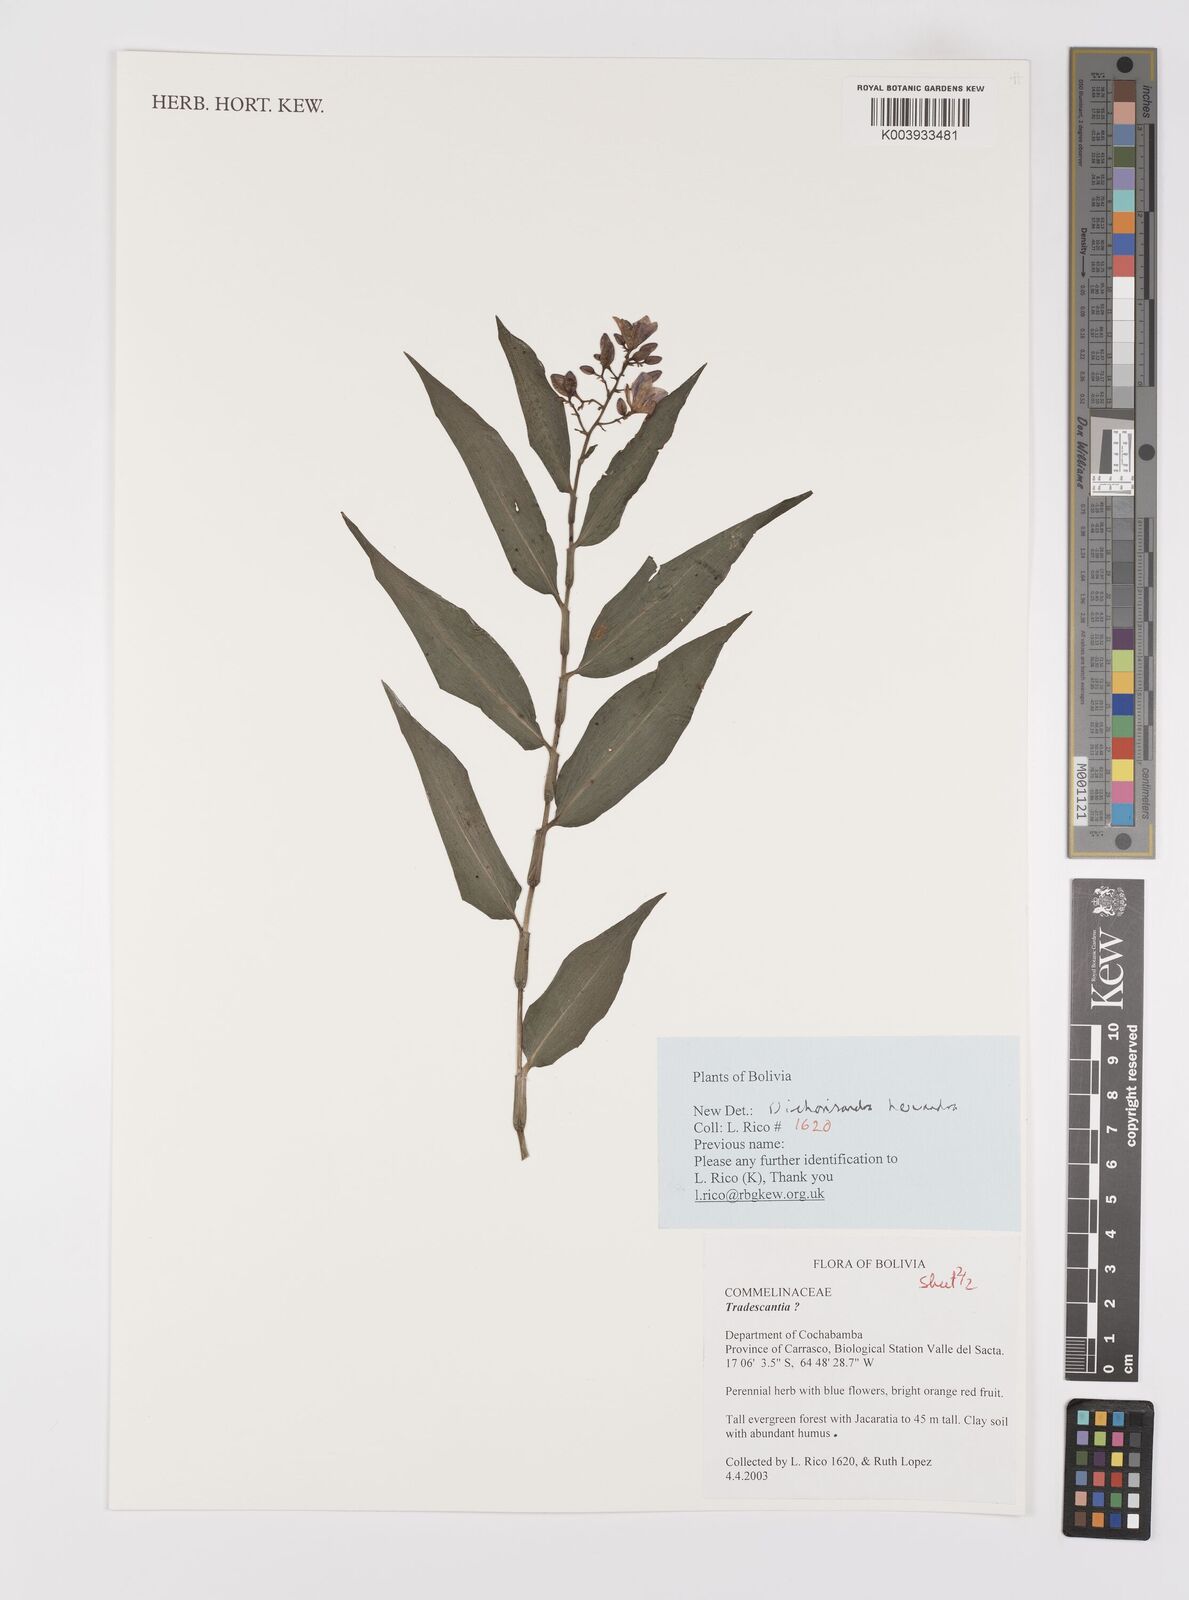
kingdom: Plantae
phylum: Tracheophyta
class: Liliopsida
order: Commelinales
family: Commelinaceae
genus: Dichorisandra
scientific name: Dichorisandra hexandra
